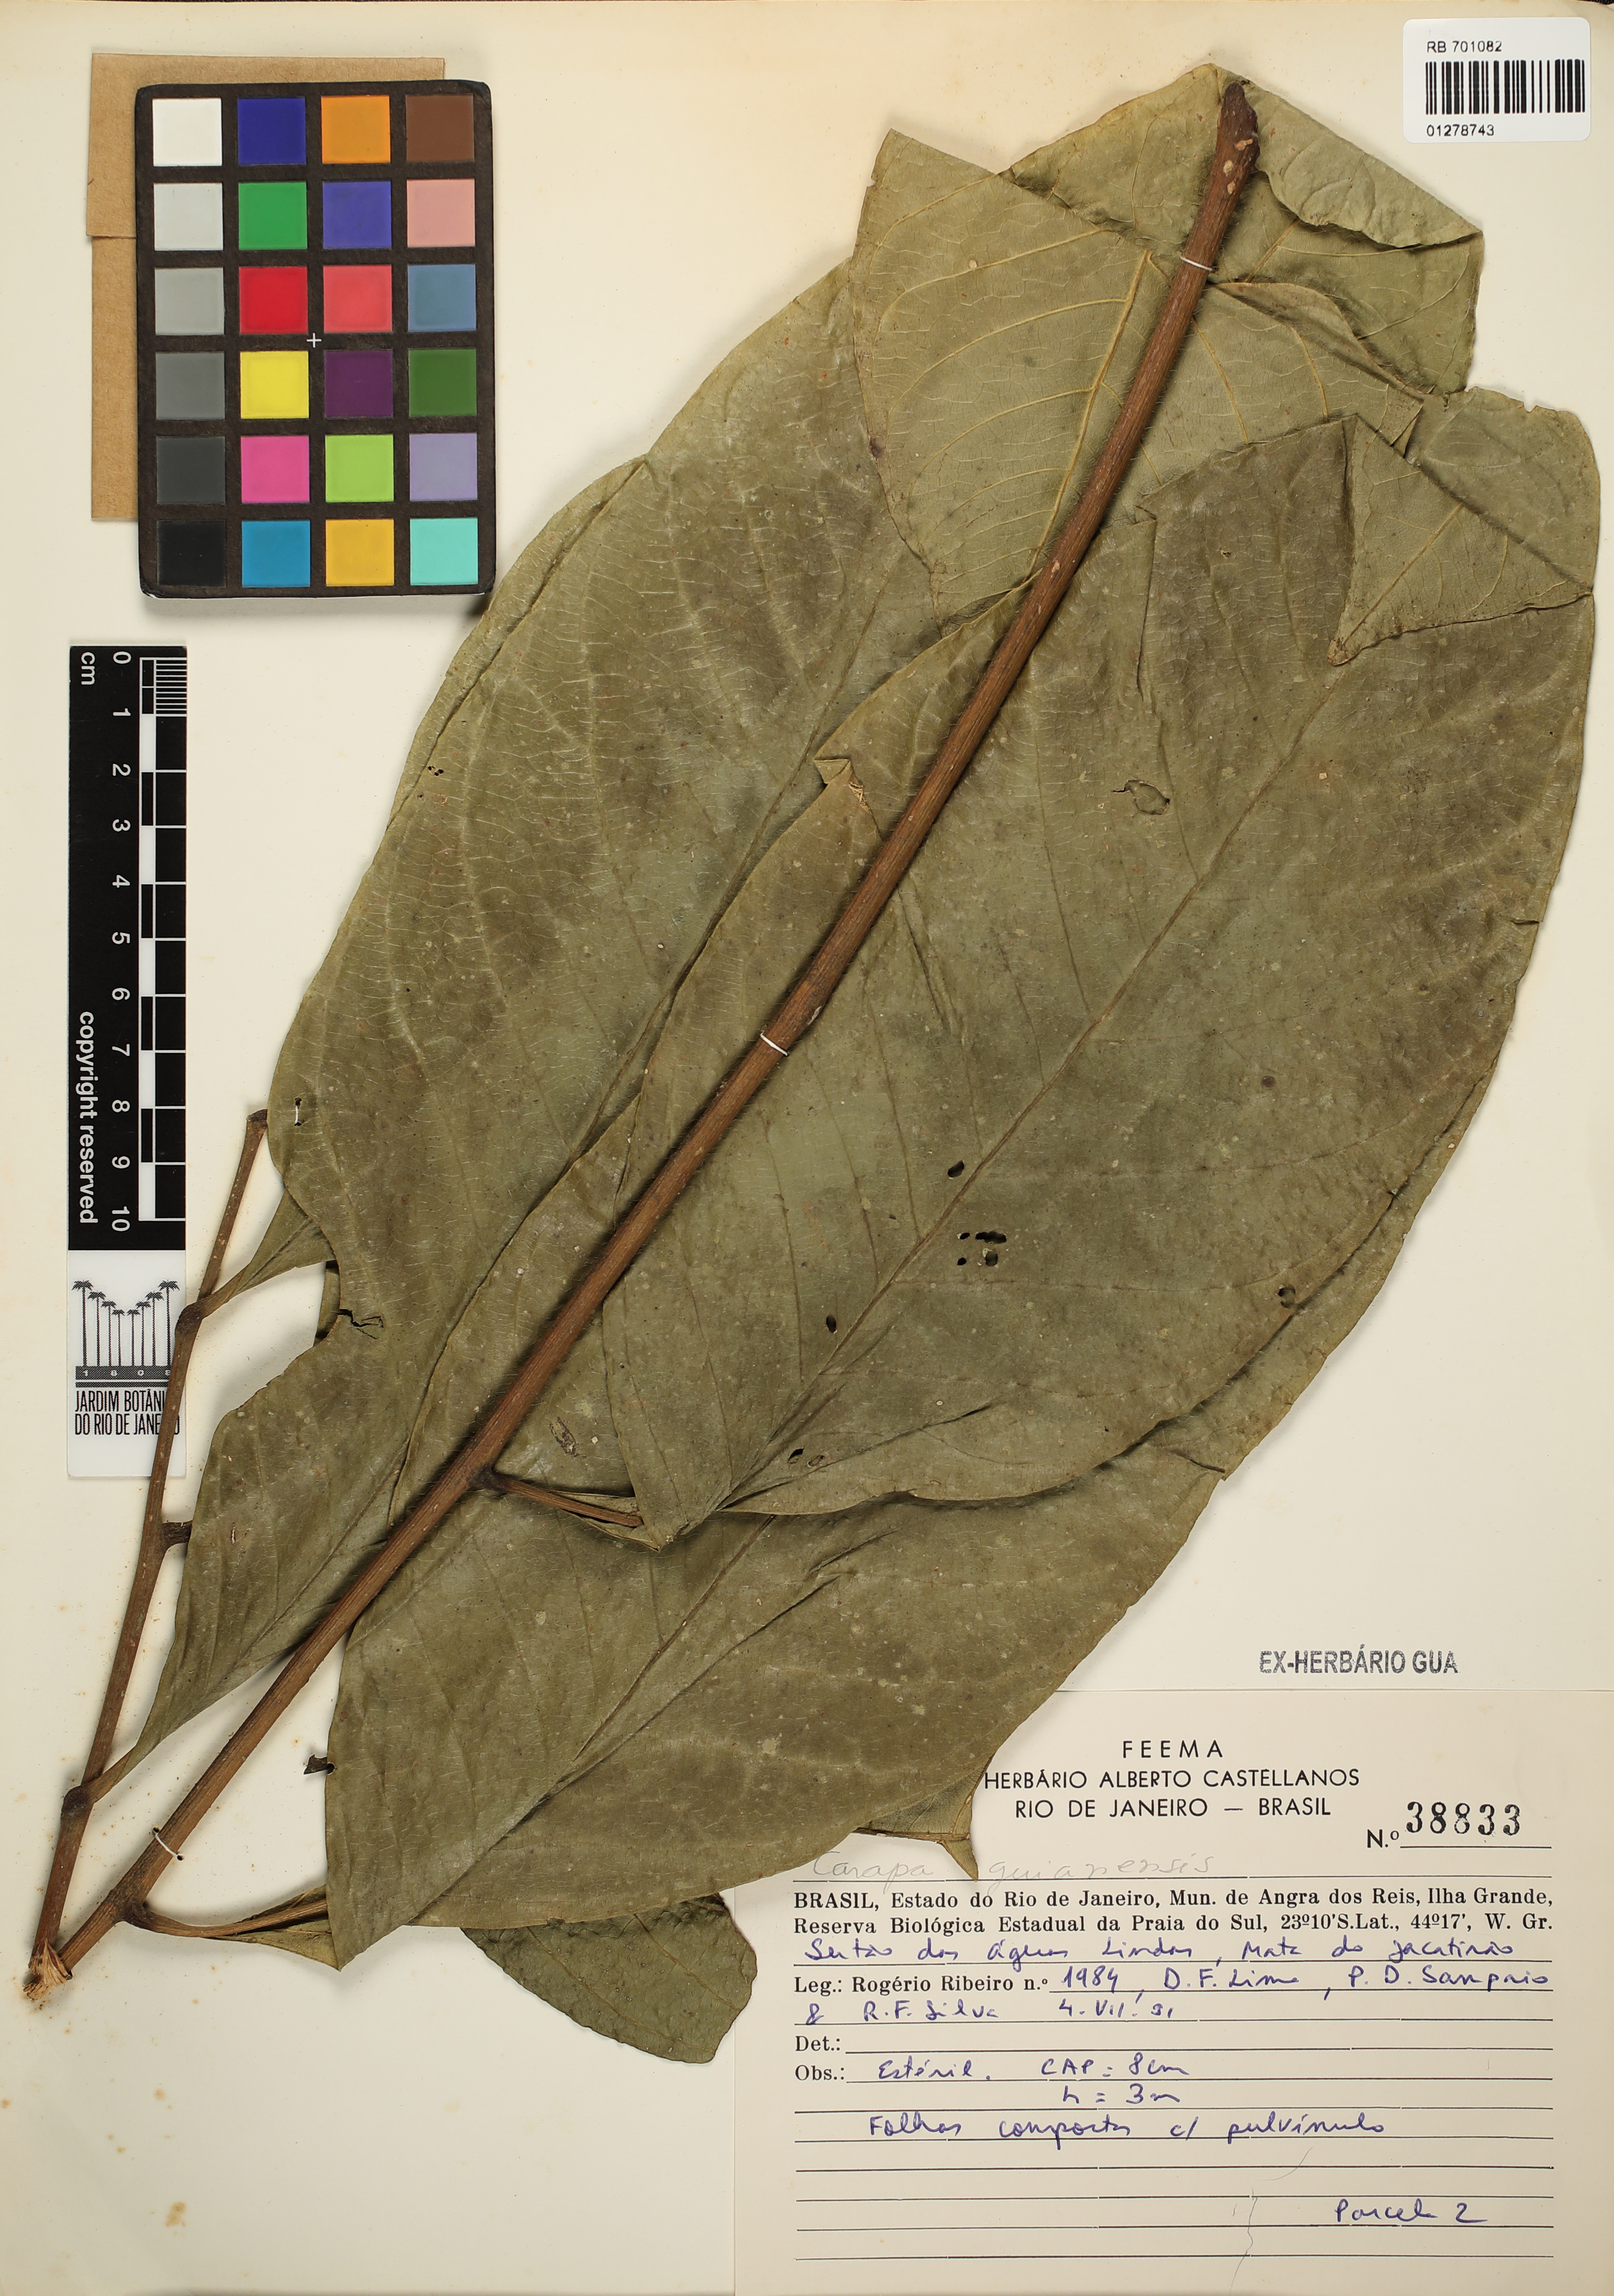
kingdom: Plantae
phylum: Tracheophyta
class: Magnoliopsida
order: Sapindales
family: Meliaceae
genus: Carapa
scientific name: Carapa guianensis
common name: Crabwood
